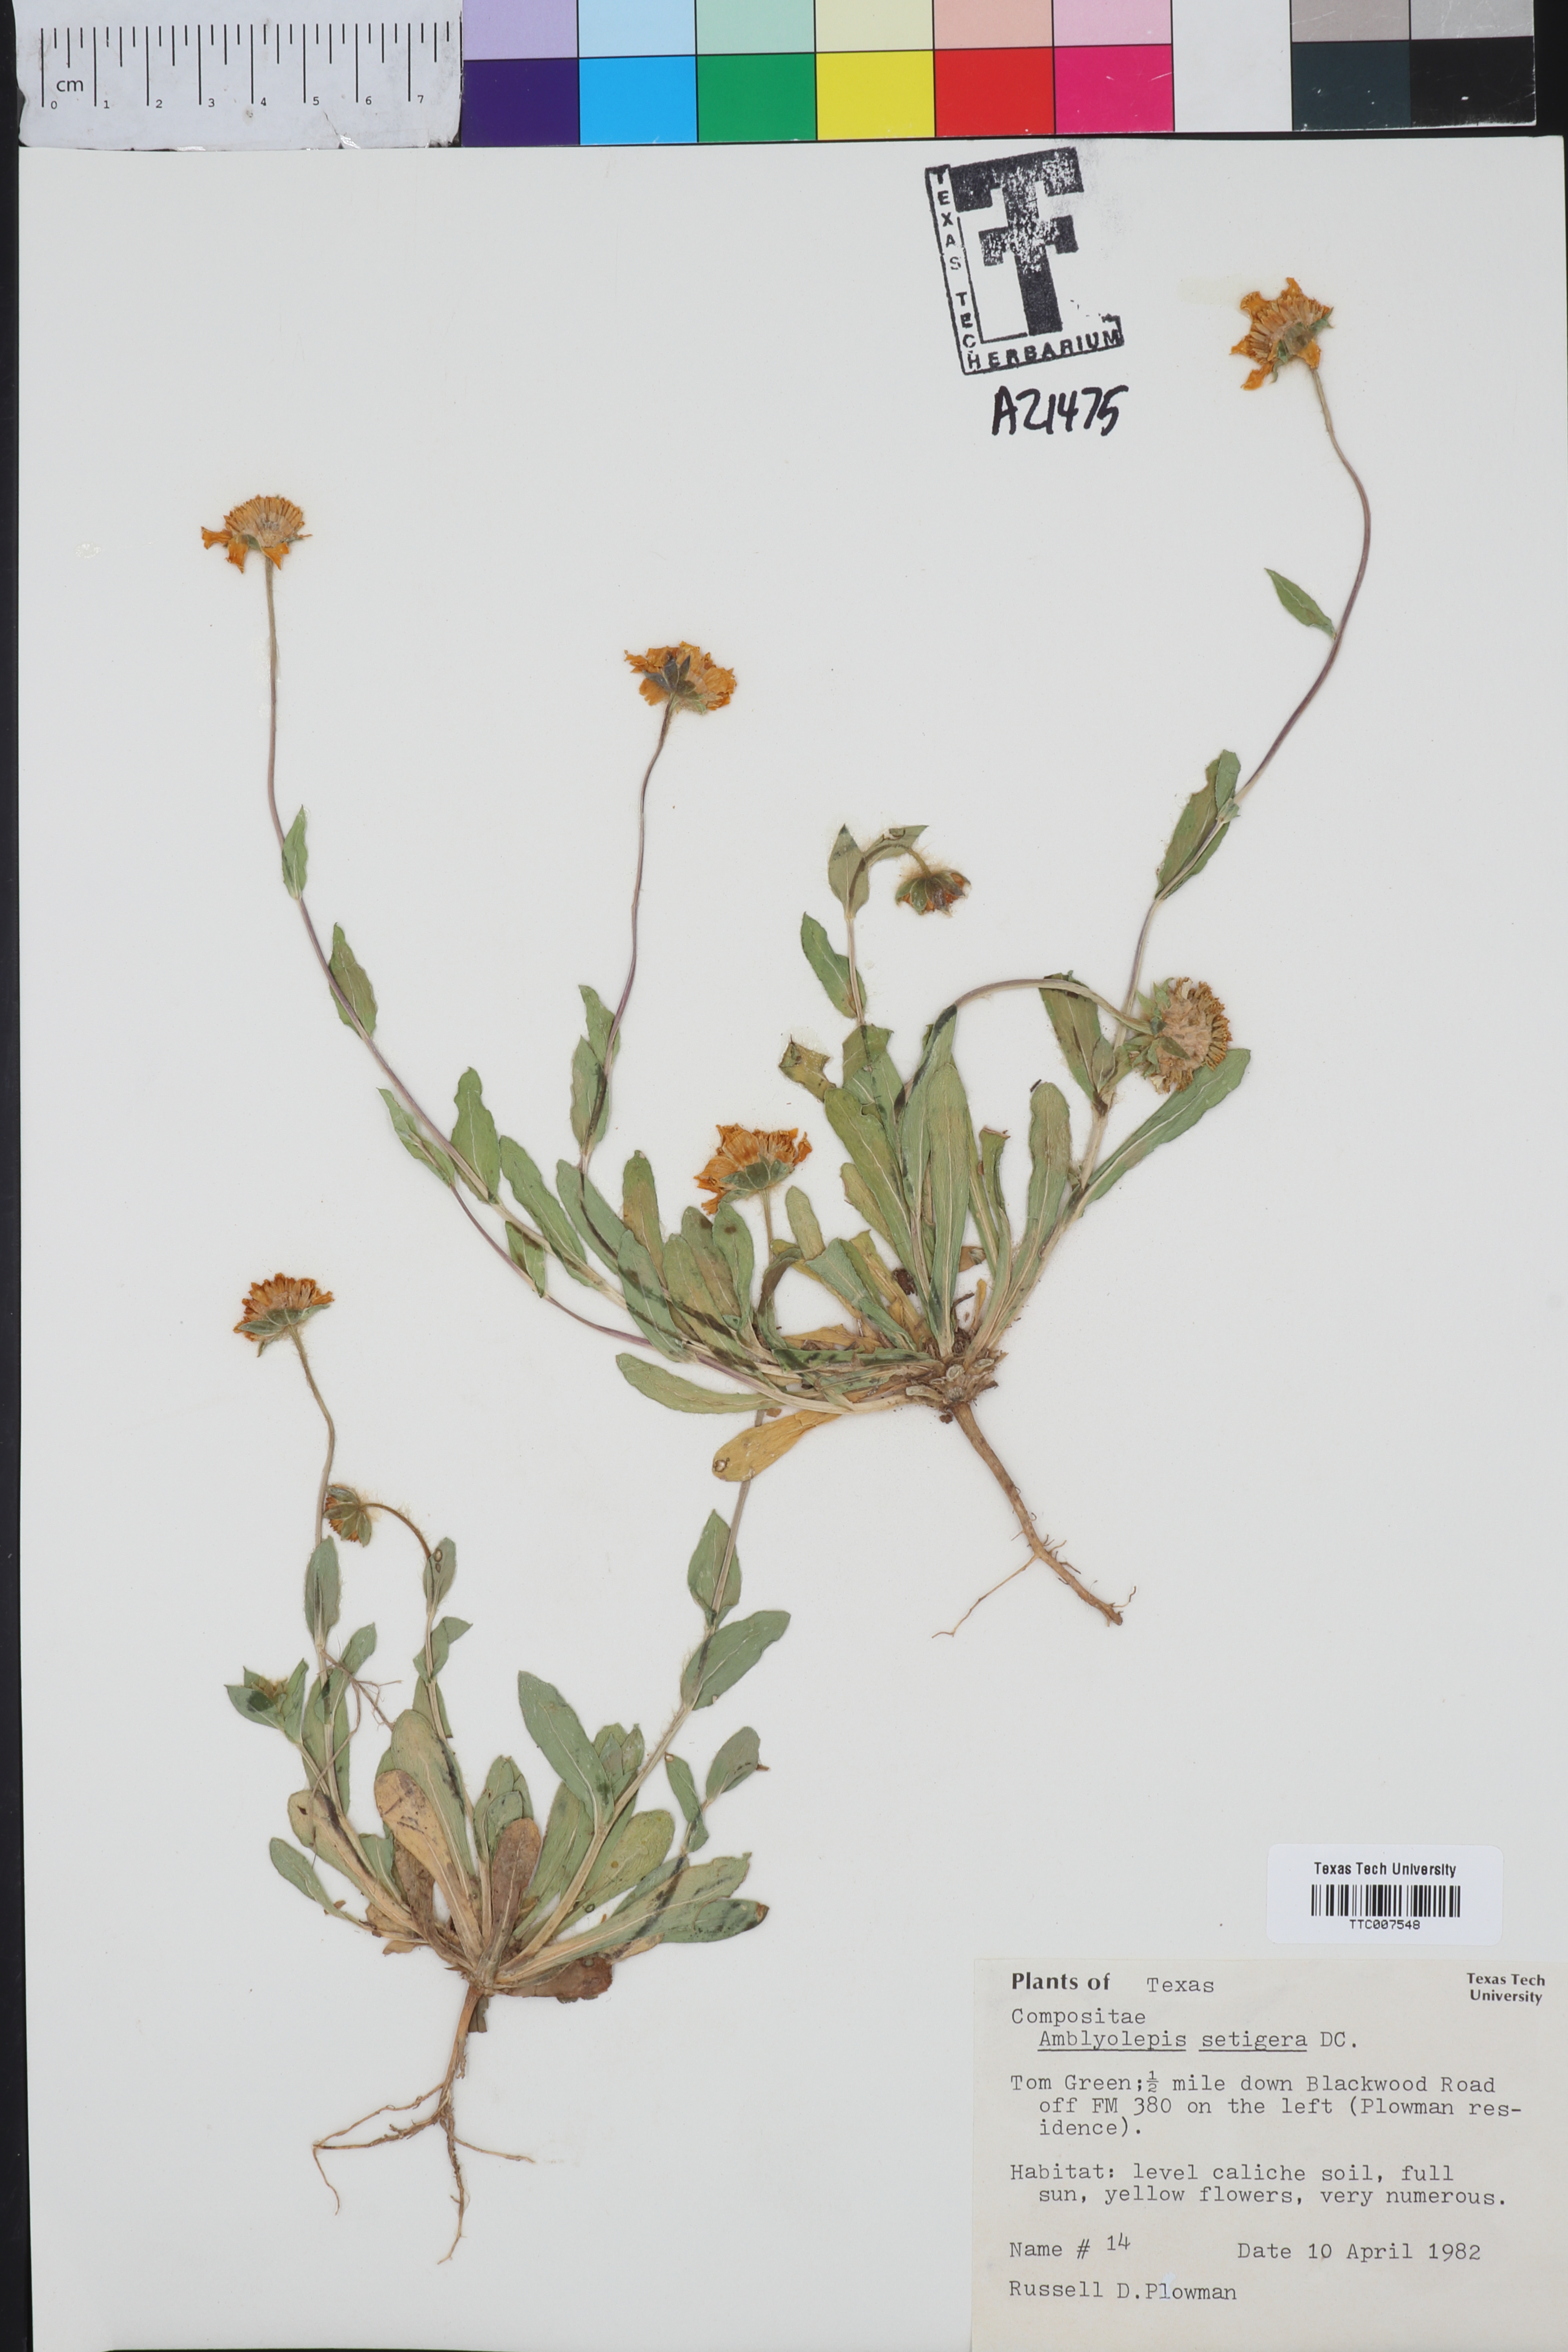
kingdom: Plantae
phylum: Tracheophyta
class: Magnoliopsida
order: Asterales
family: Asteraceae
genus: Amblyolepis
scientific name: Amblyolepis setigera
